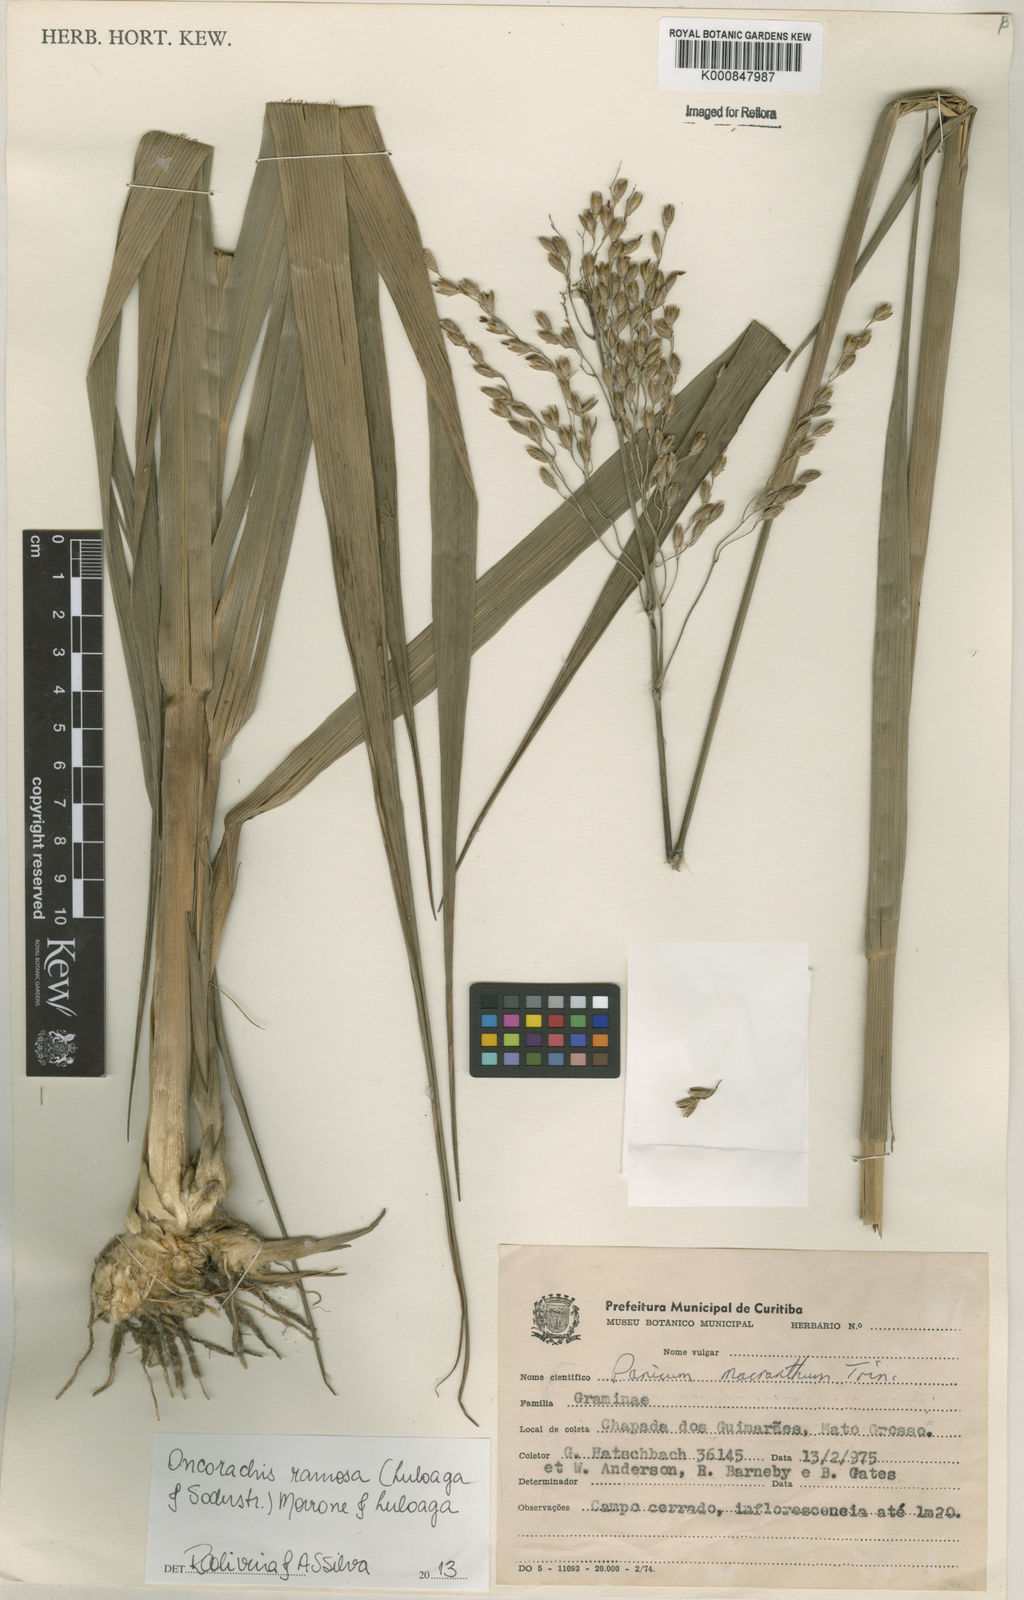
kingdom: Plantae
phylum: Tracheophyta
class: Liliopsida
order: Poales
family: Poaceae
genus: Oncorachis
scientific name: Oncorachis ramosa
